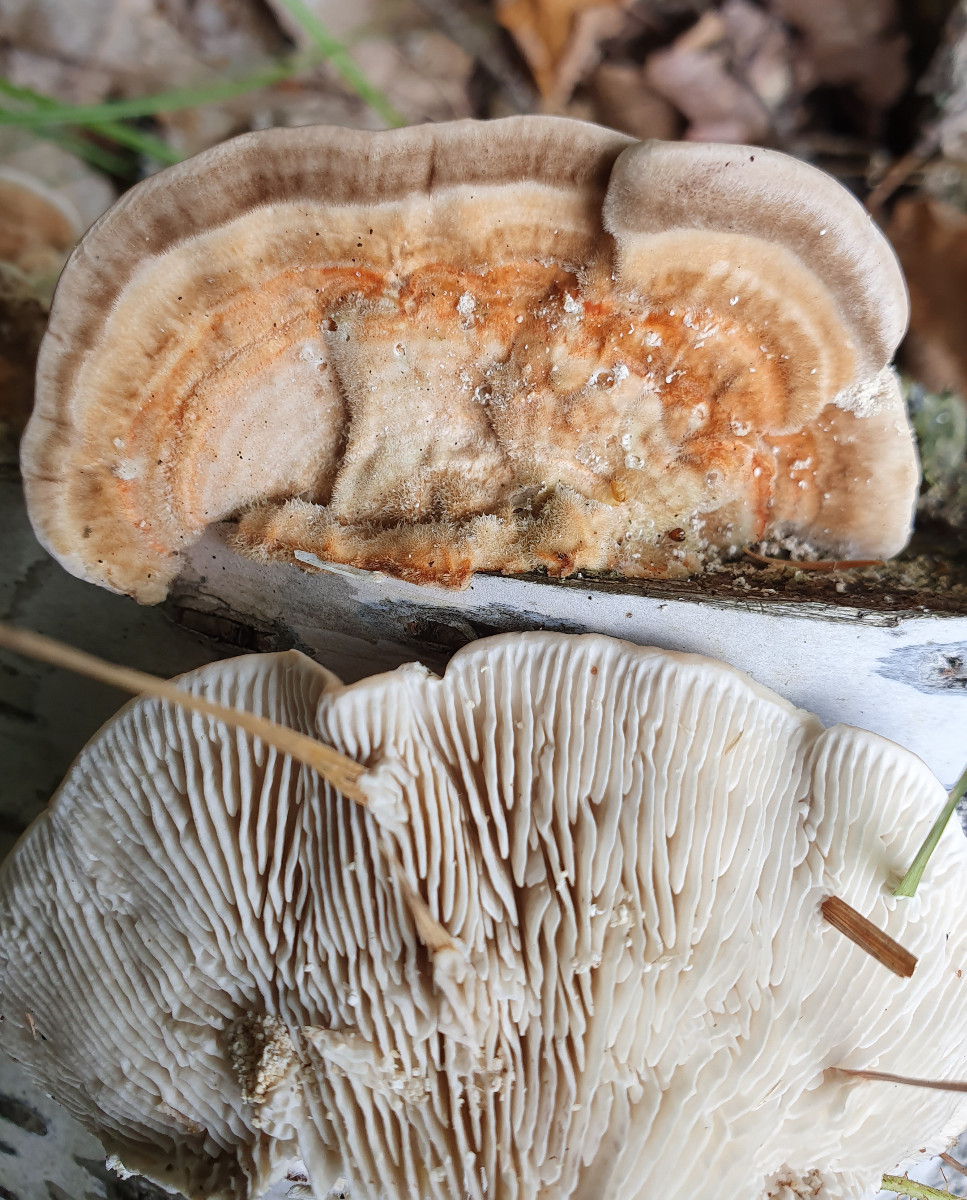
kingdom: Fungi
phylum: Basidiomycota
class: Agaricomycetes
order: Polyporales
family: Polyporaceae
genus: Lenzites
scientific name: Lenzites betulinus
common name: birke-læderporesvamp
